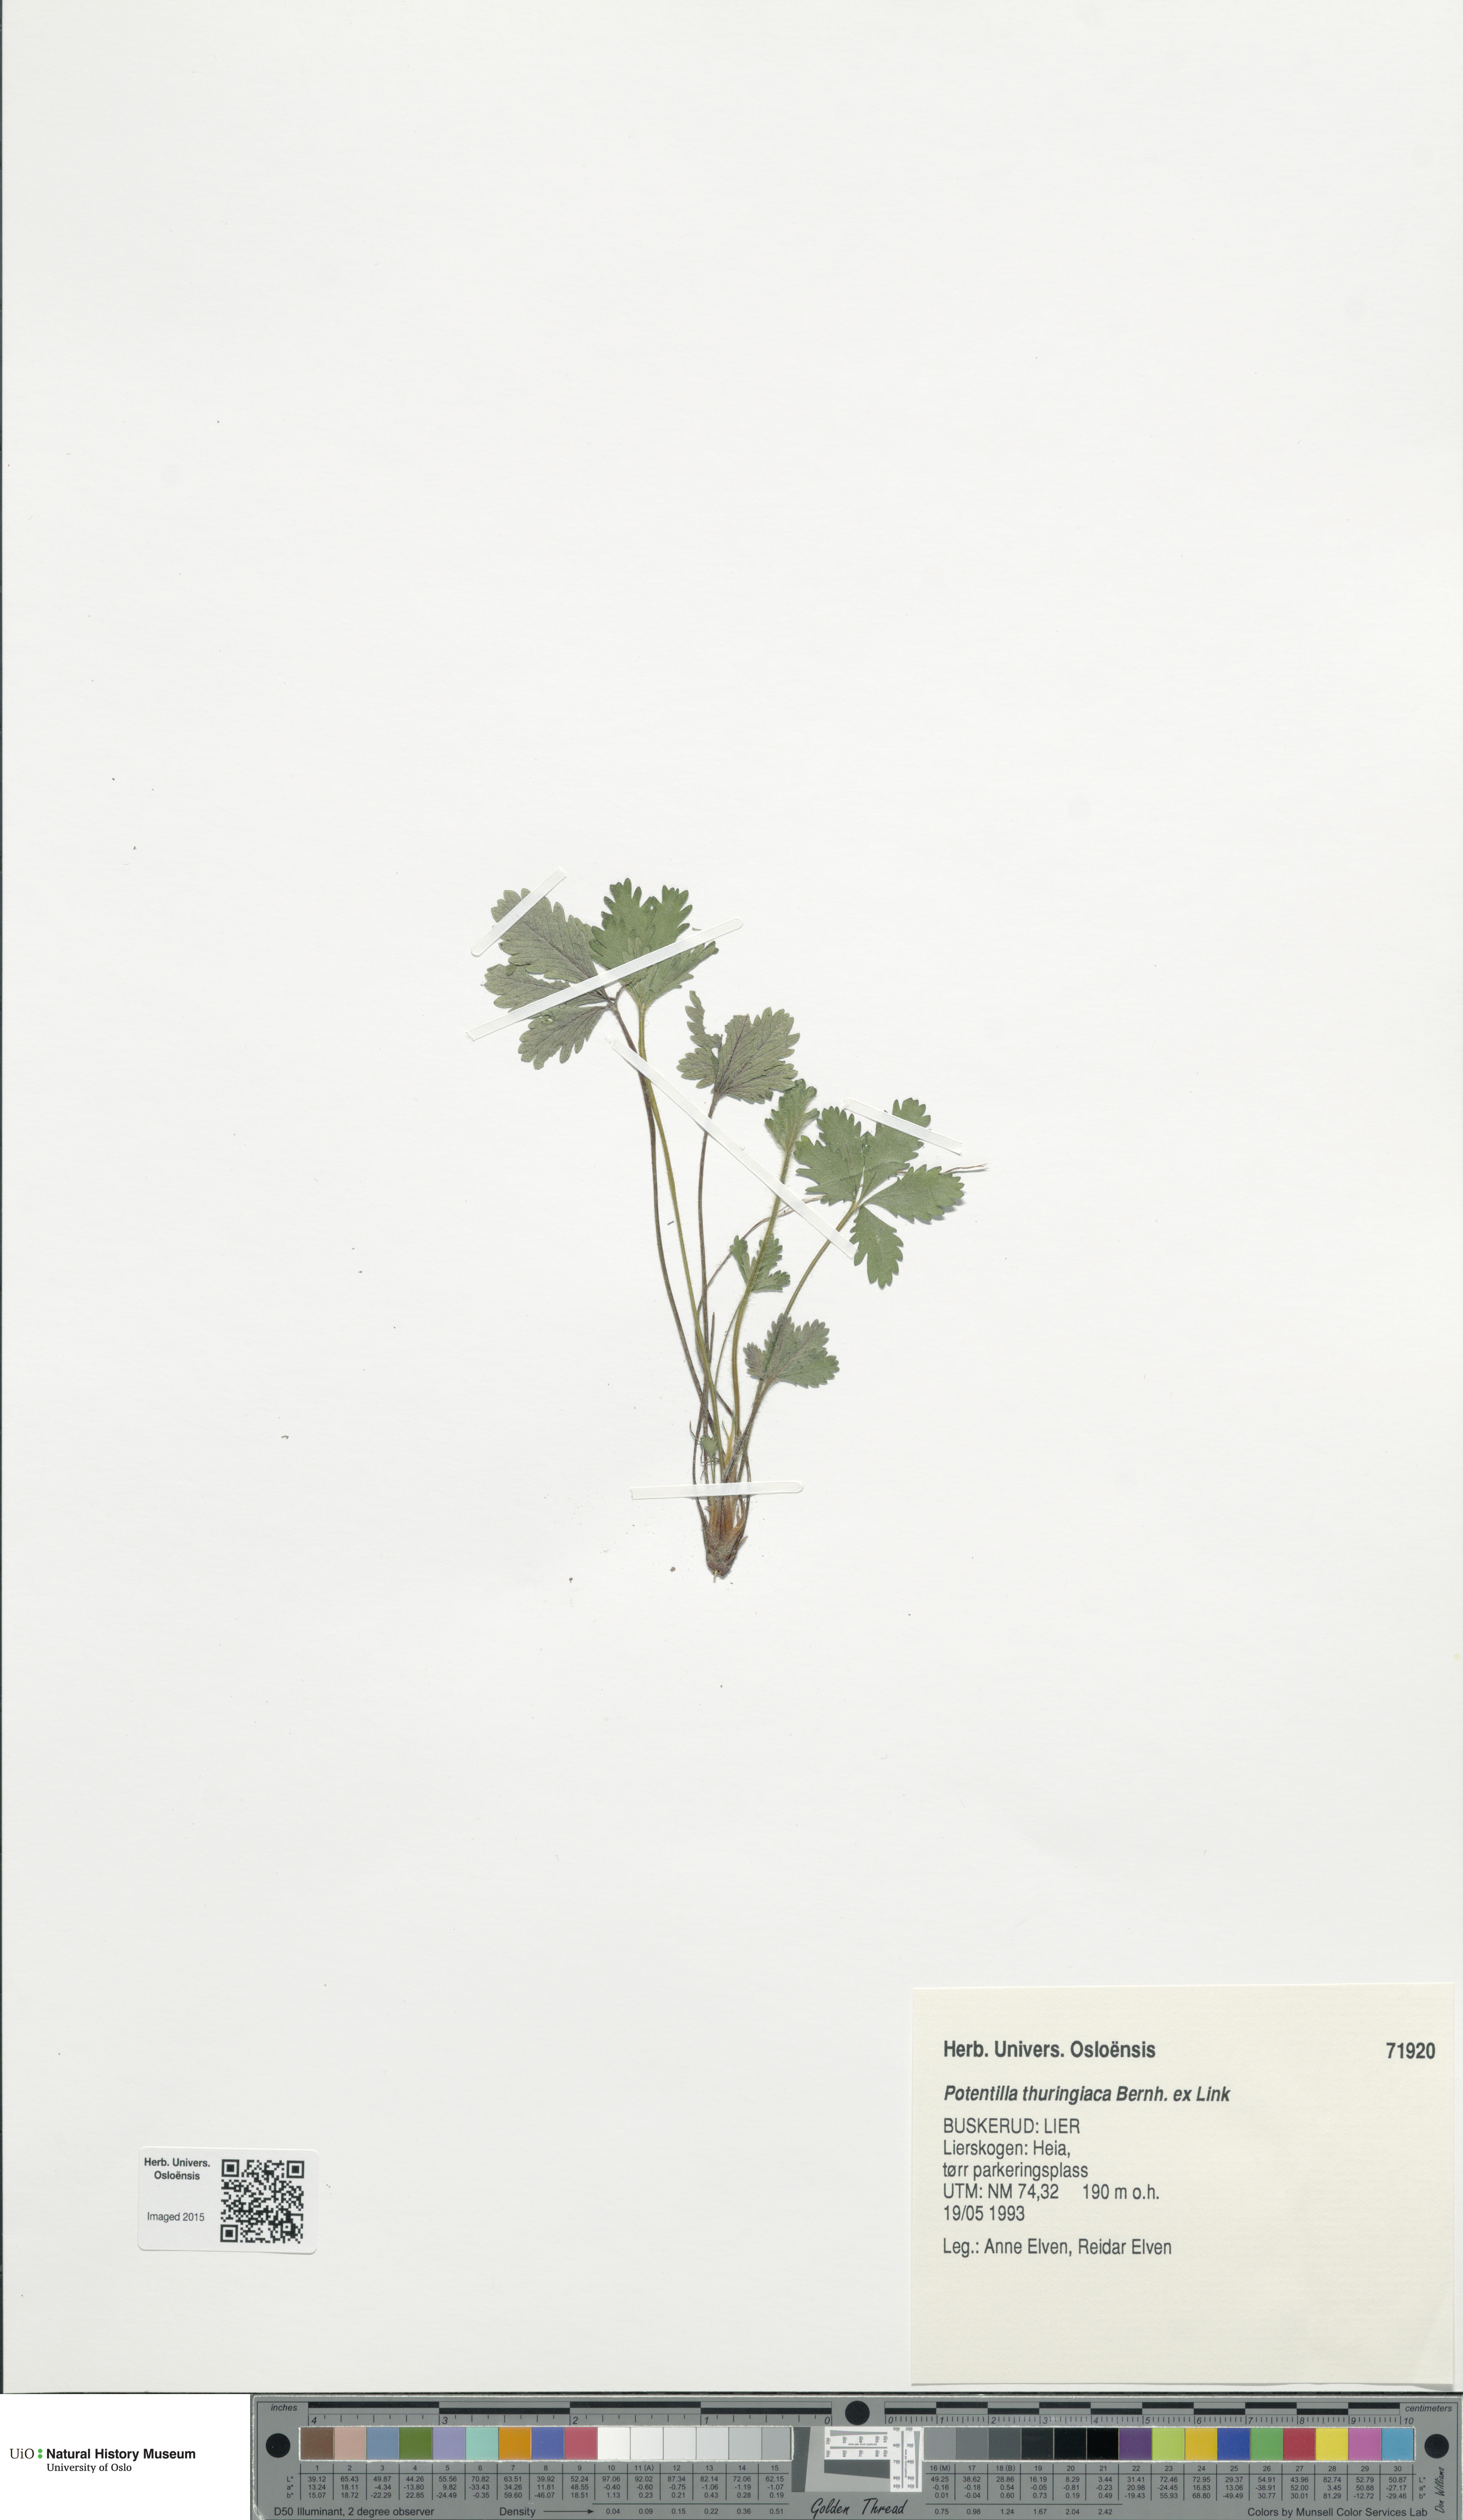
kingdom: Plantae
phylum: Tracheophyta
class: Magnoliopsida
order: Rosales
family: Rosaceae
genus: Potentilla
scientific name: Potentilla thuringiaca
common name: European cinquefoil
